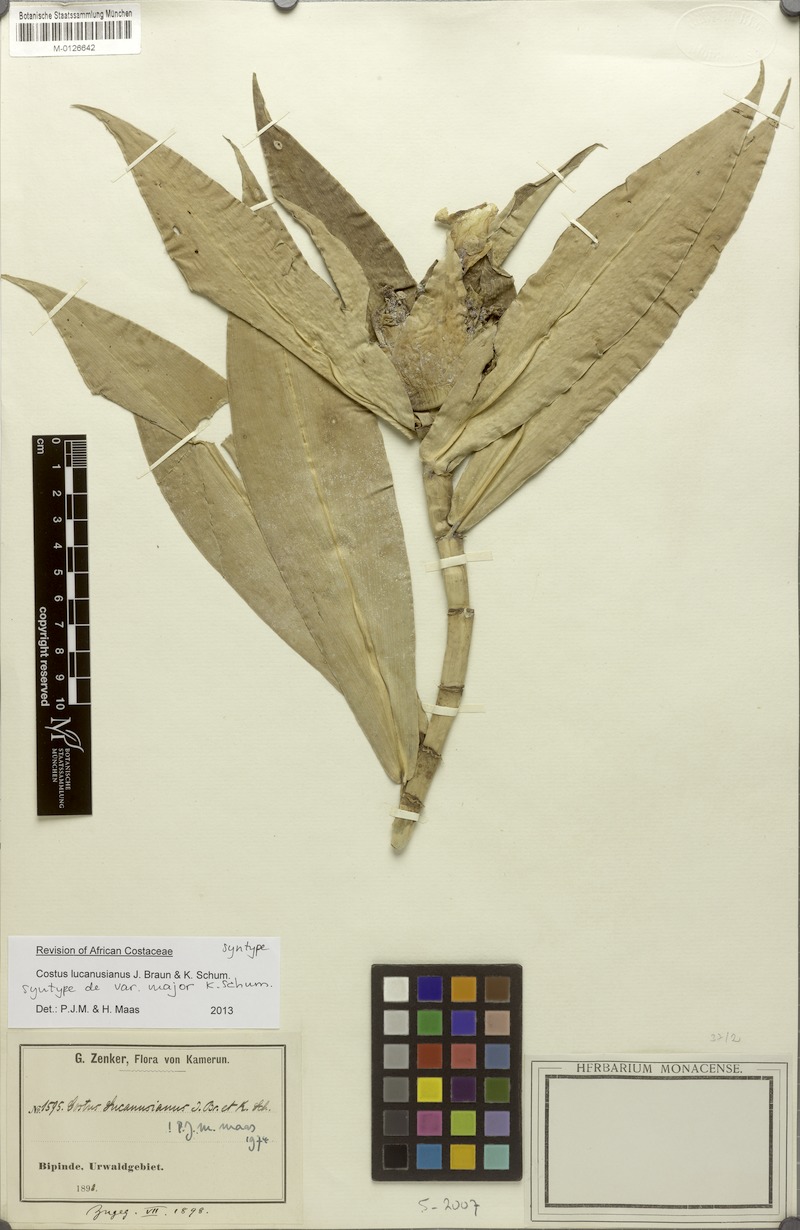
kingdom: Plantae
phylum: Tracheophyta
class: Liliopsida
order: Zingiberales
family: Costaceae
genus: Costus
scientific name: Costus lucanusianus
